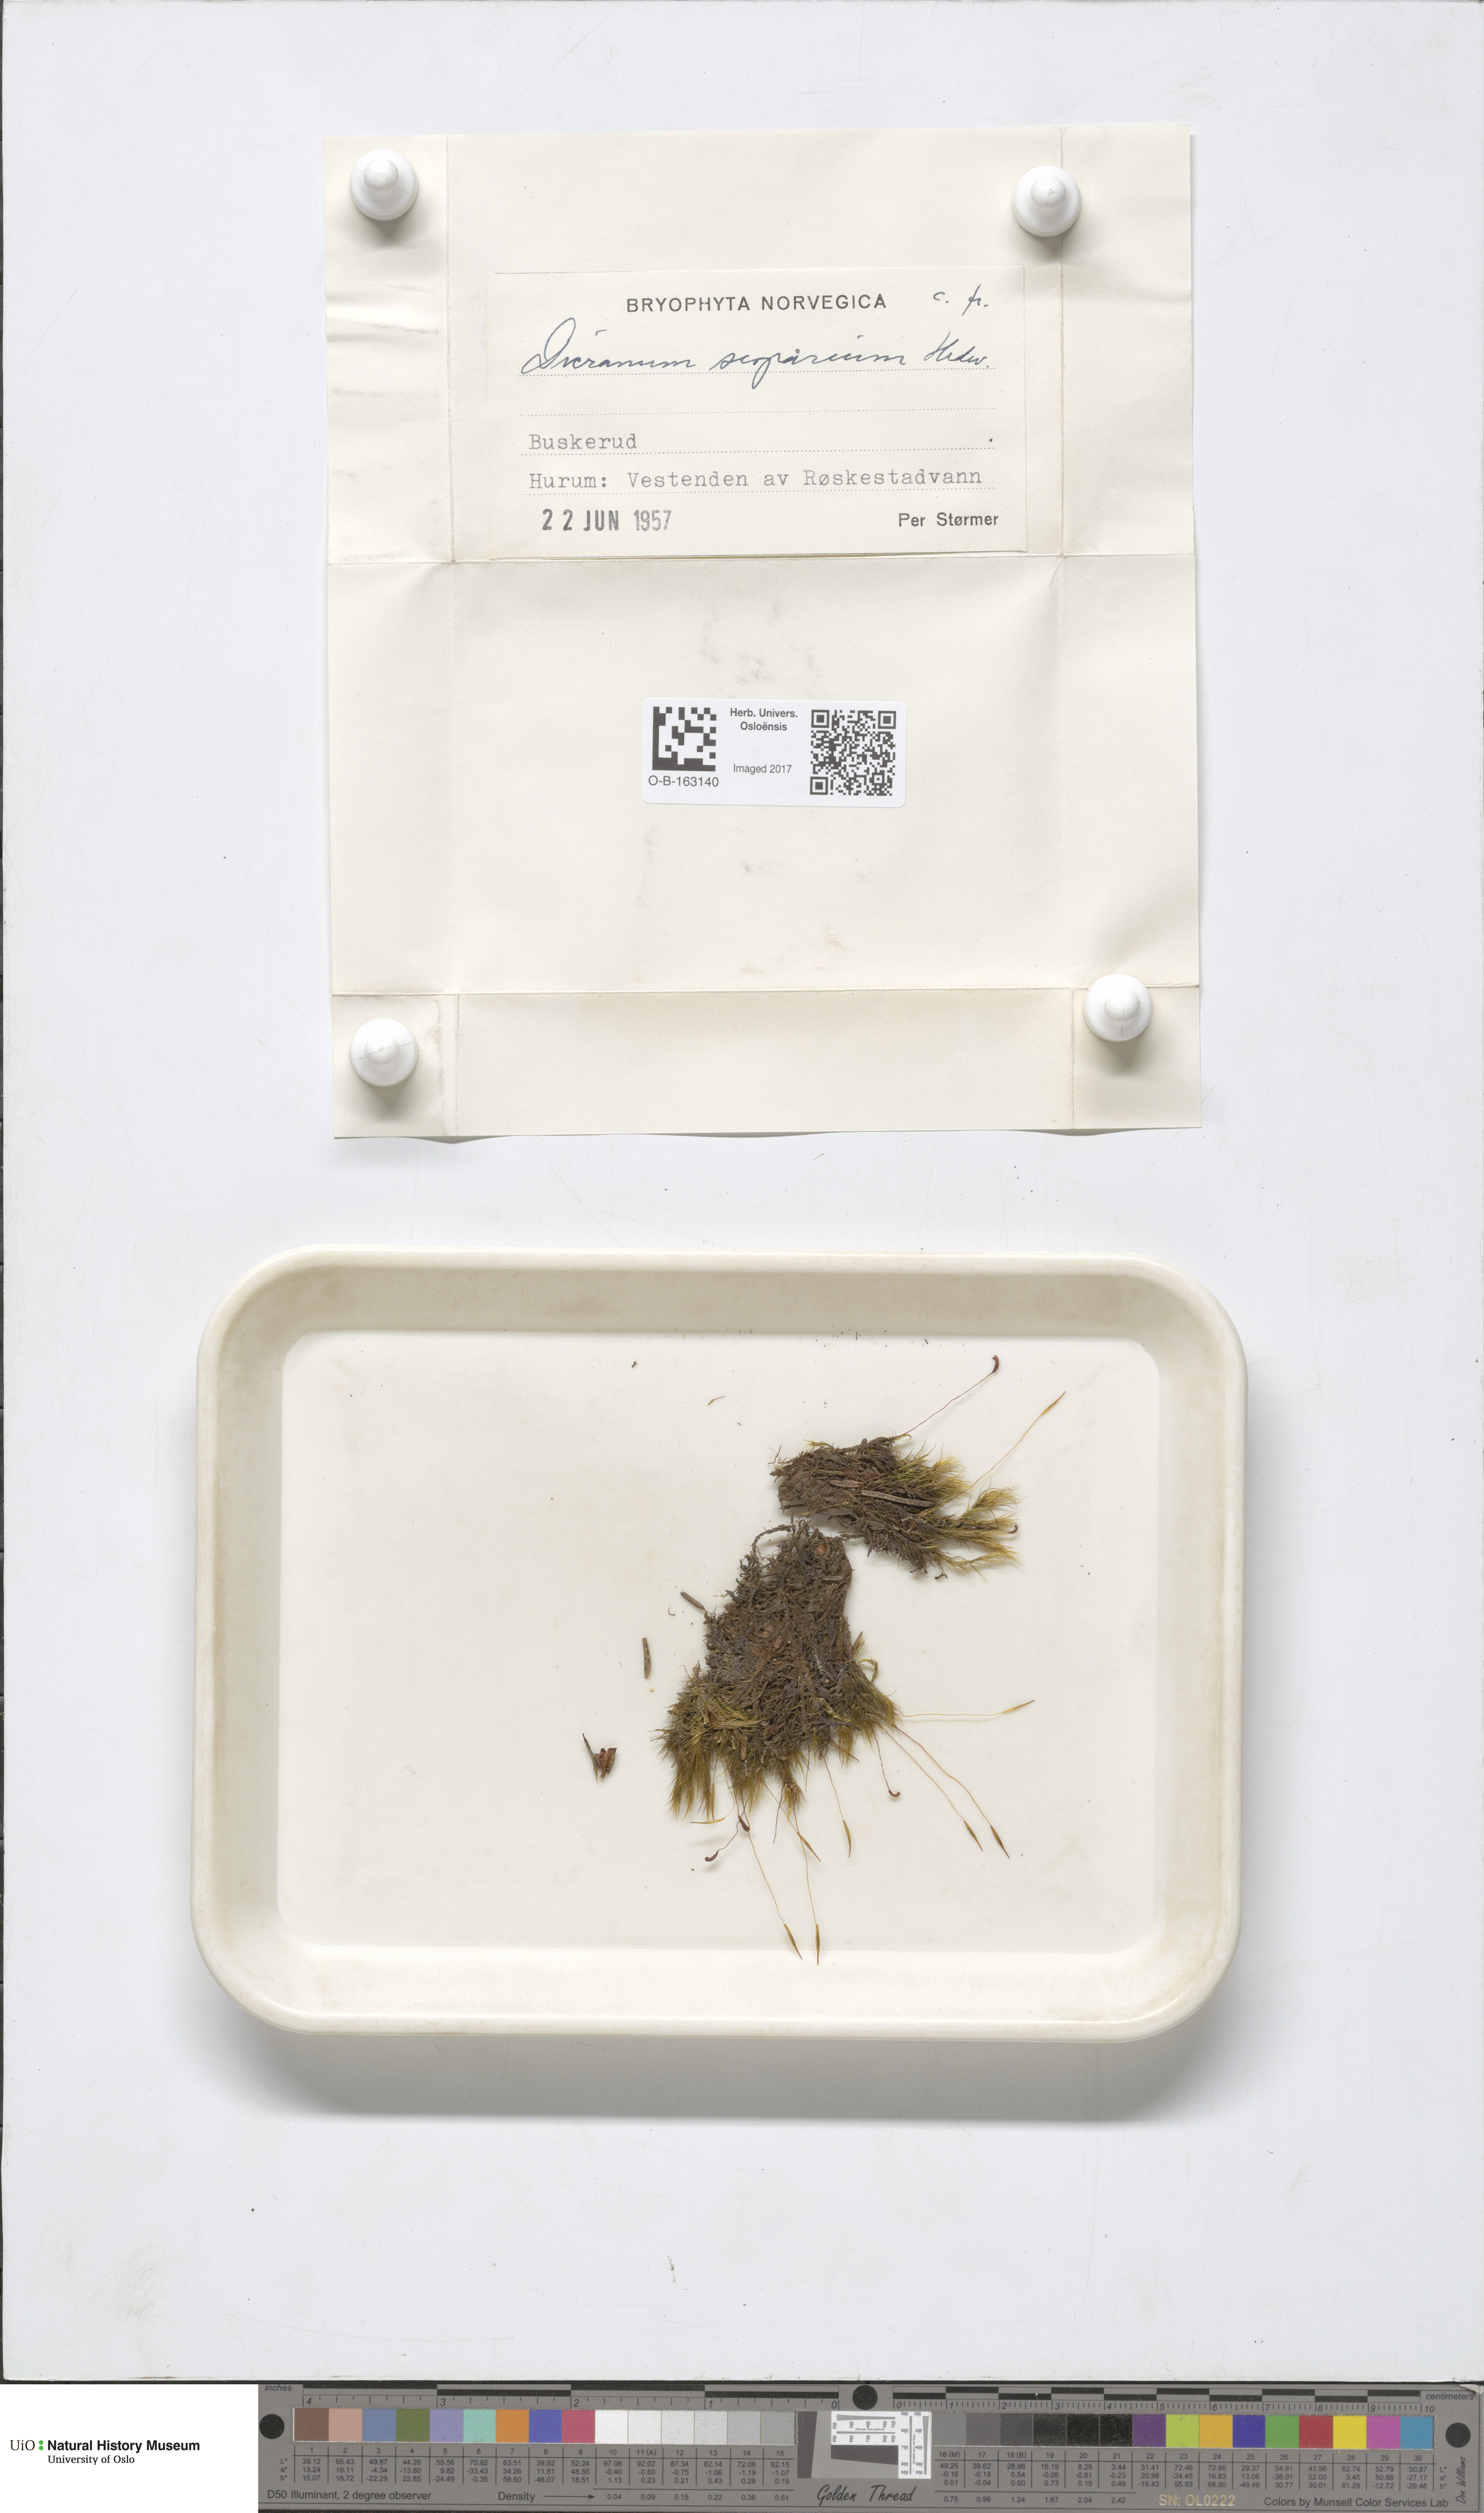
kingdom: Plantae
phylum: Bryophyta
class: Bryopsida
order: Dicranales
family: Dicranaceae
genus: Dicranum
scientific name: Dicranum scoparium
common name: Broom fork-moss
